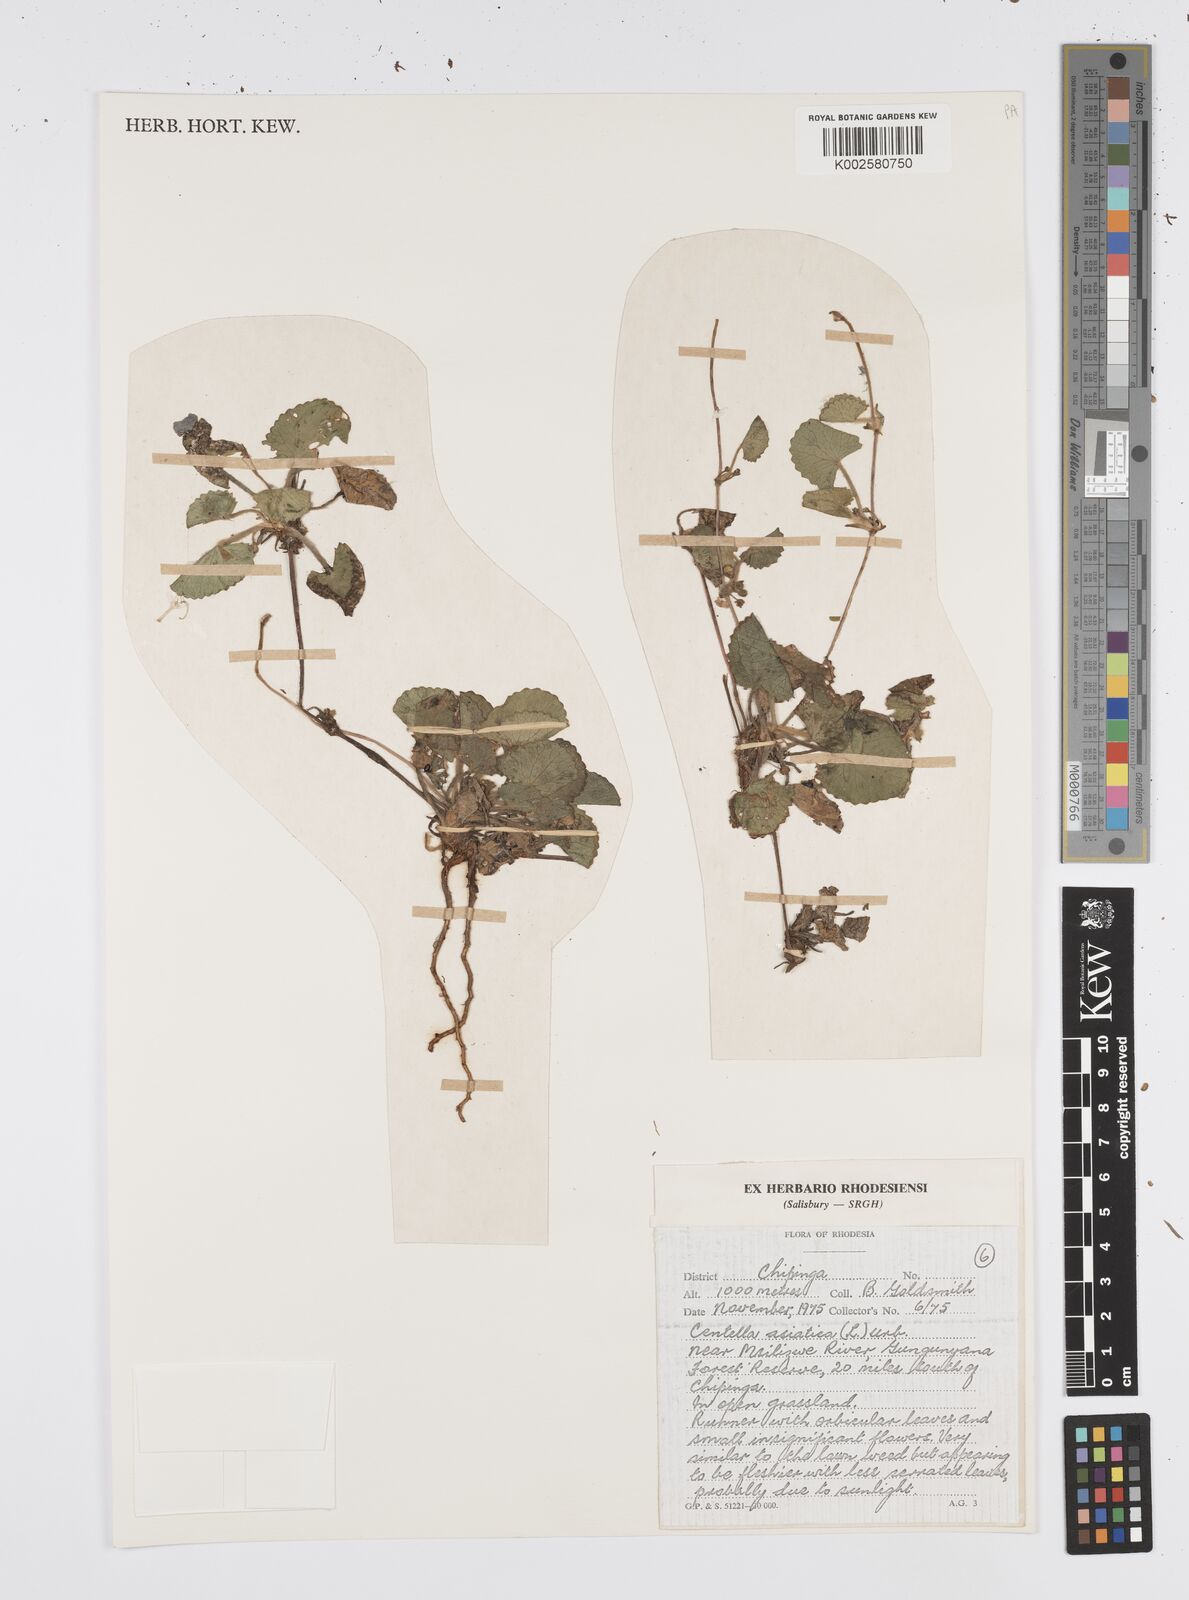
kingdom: Plantae
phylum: Tracheophyta
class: Magnoliopsida
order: Apiales
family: Apiaceae
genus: Centella
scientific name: Centella asiatica
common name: Spadeleaf
